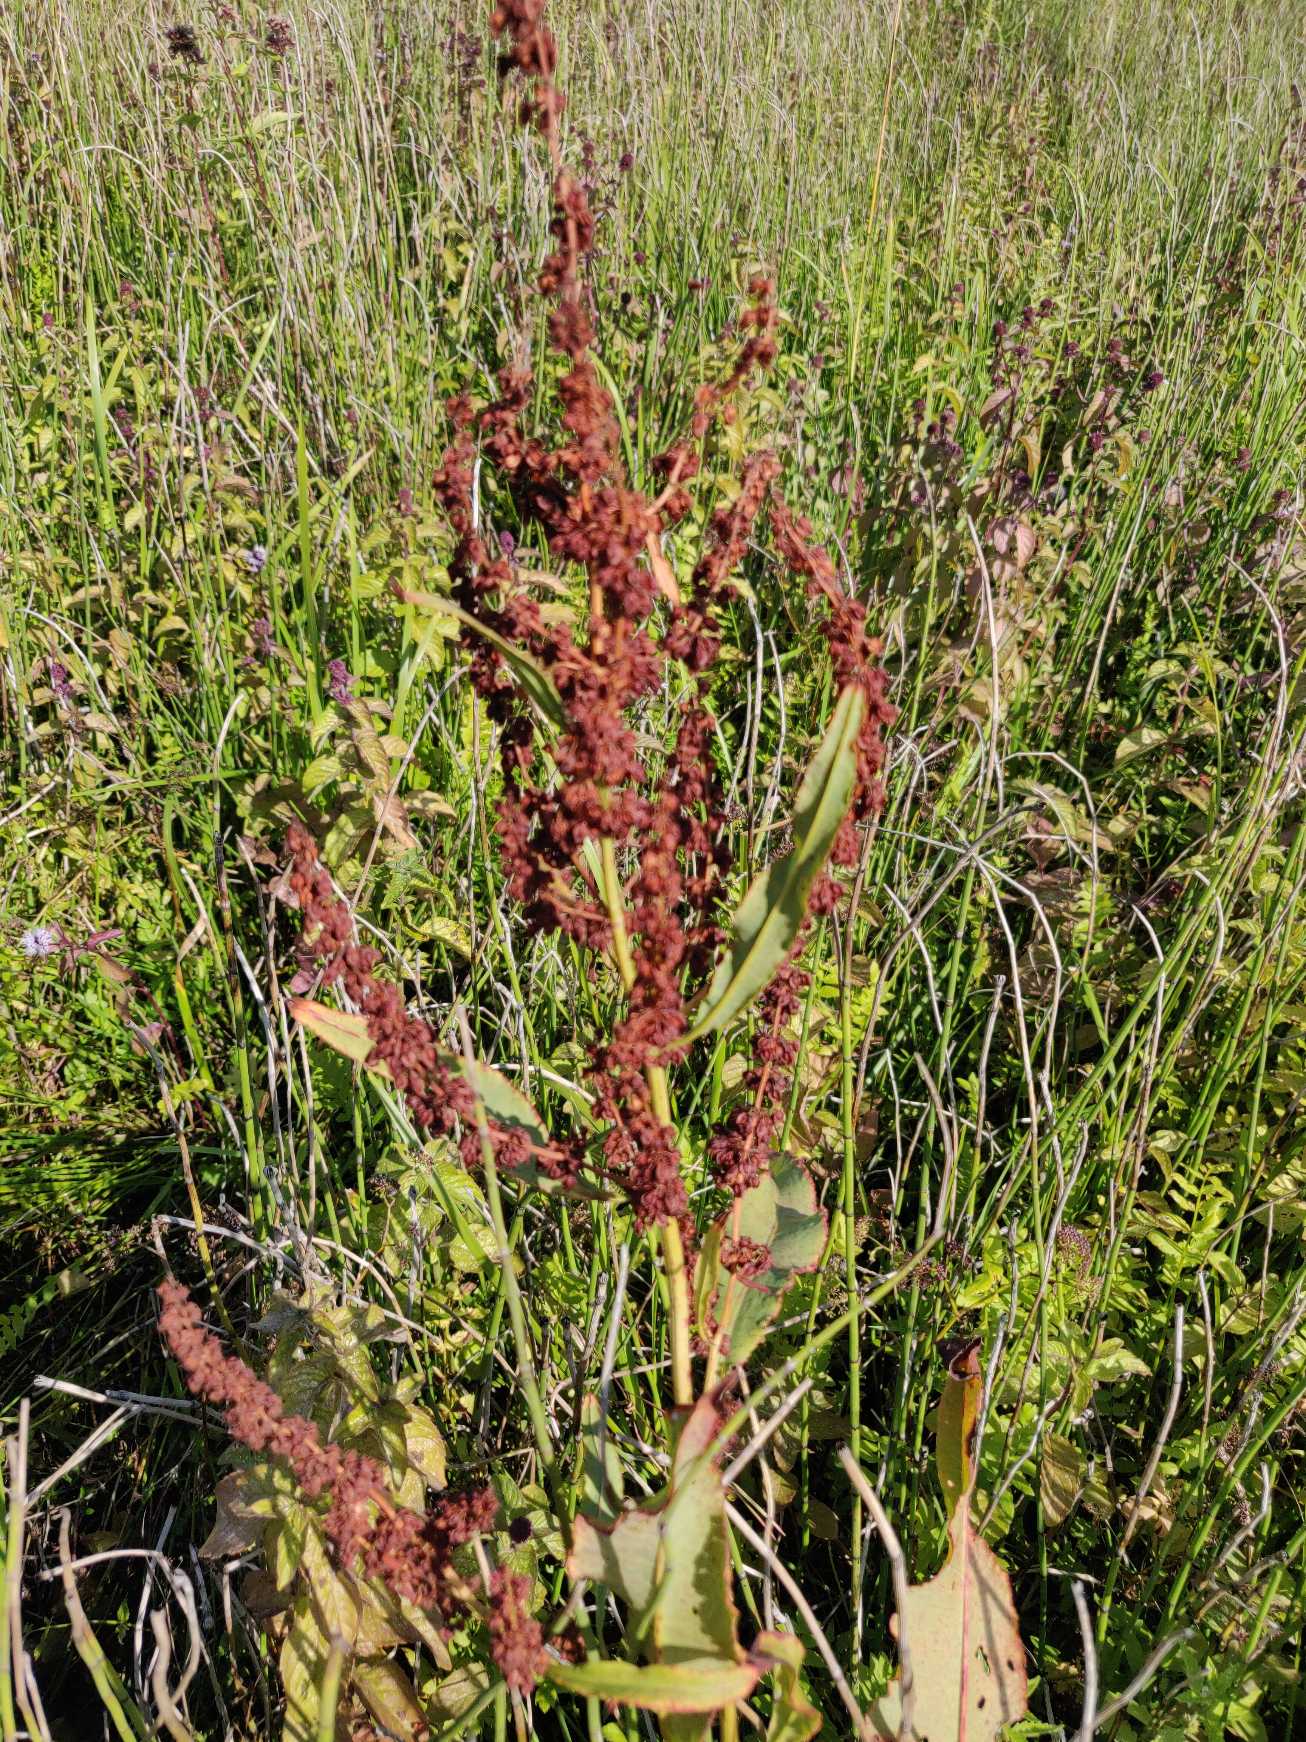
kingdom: Plantae
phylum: Tracheophyta
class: Magnoliopsida
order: Caryophyllales
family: Polygonaceae
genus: Rumex
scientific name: Rumex hydrolapathum
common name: Vand-skræppe
